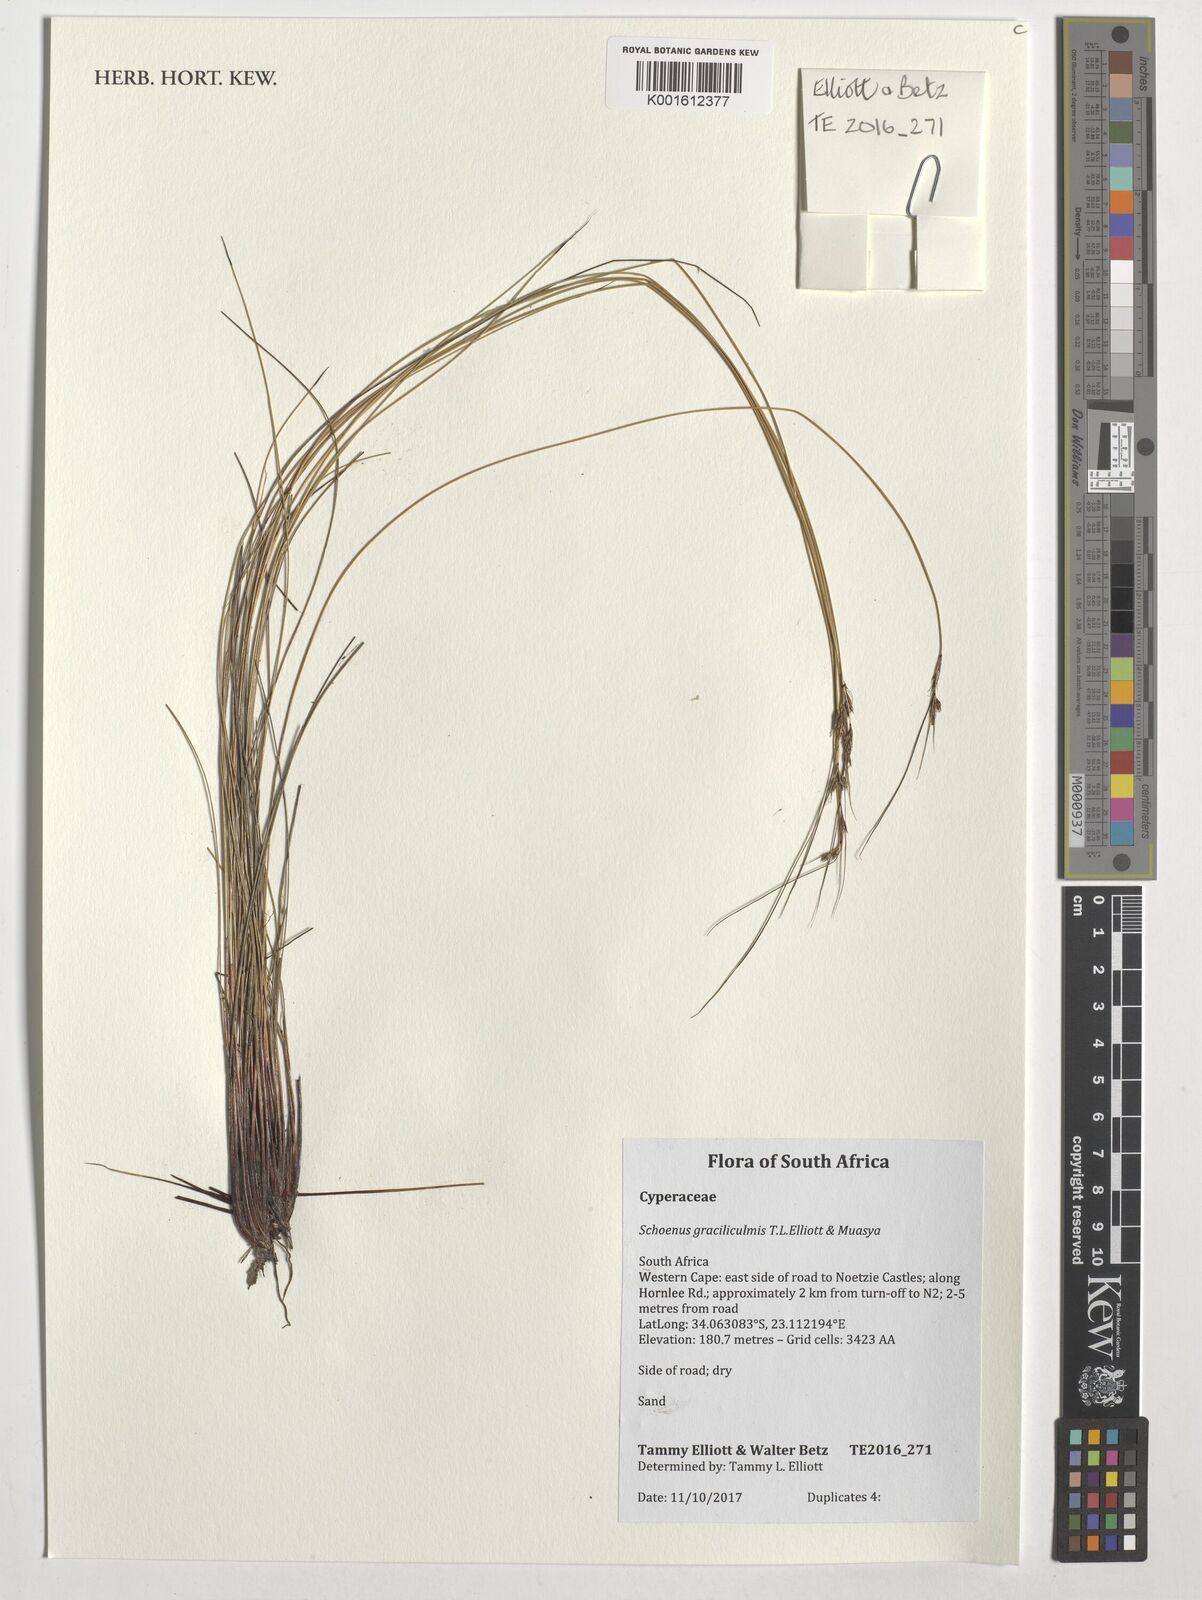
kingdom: Plantae
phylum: Tracheophyta
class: Liliopsida
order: Poales
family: Cyperaceae
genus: Schoenus
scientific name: Schoenus
